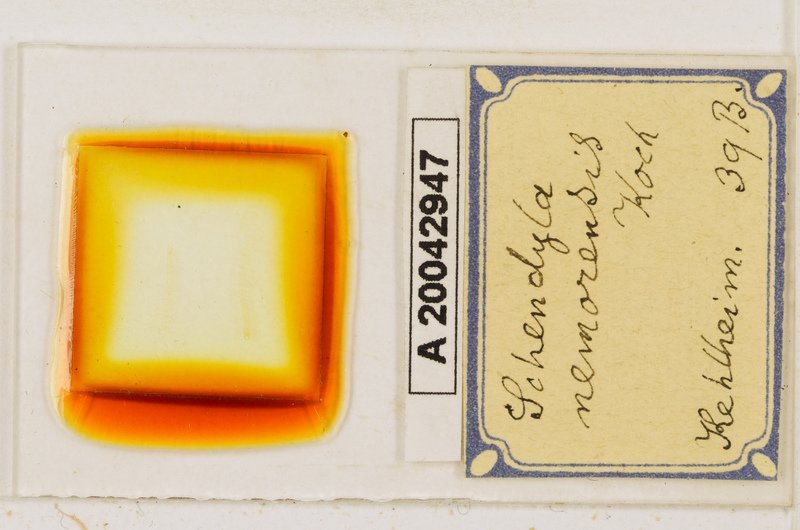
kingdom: Animalia
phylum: Arthropoda
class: Chilopoda
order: Geophilomorpha
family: Schendylidae
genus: Schendyla
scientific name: Schendyla nemorensis
